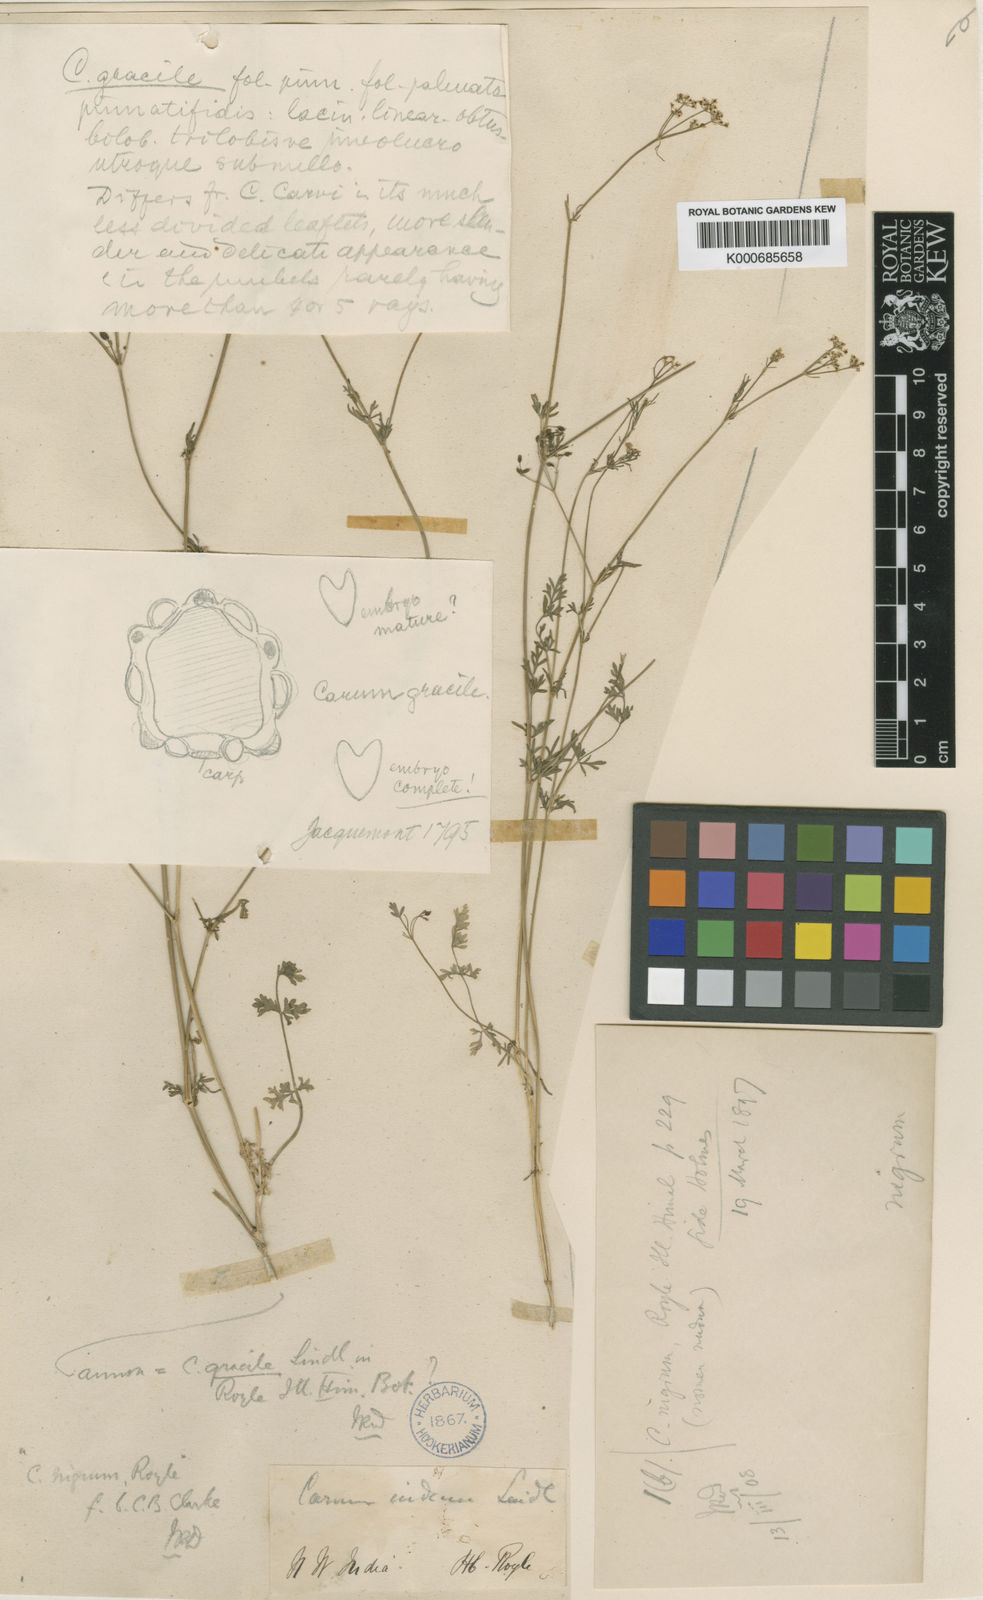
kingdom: Plantae
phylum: Tracheophyta
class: Magnoliopsida
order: Apiales
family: Apiaceae
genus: Carum
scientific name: Carum carvi
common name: Caraway
